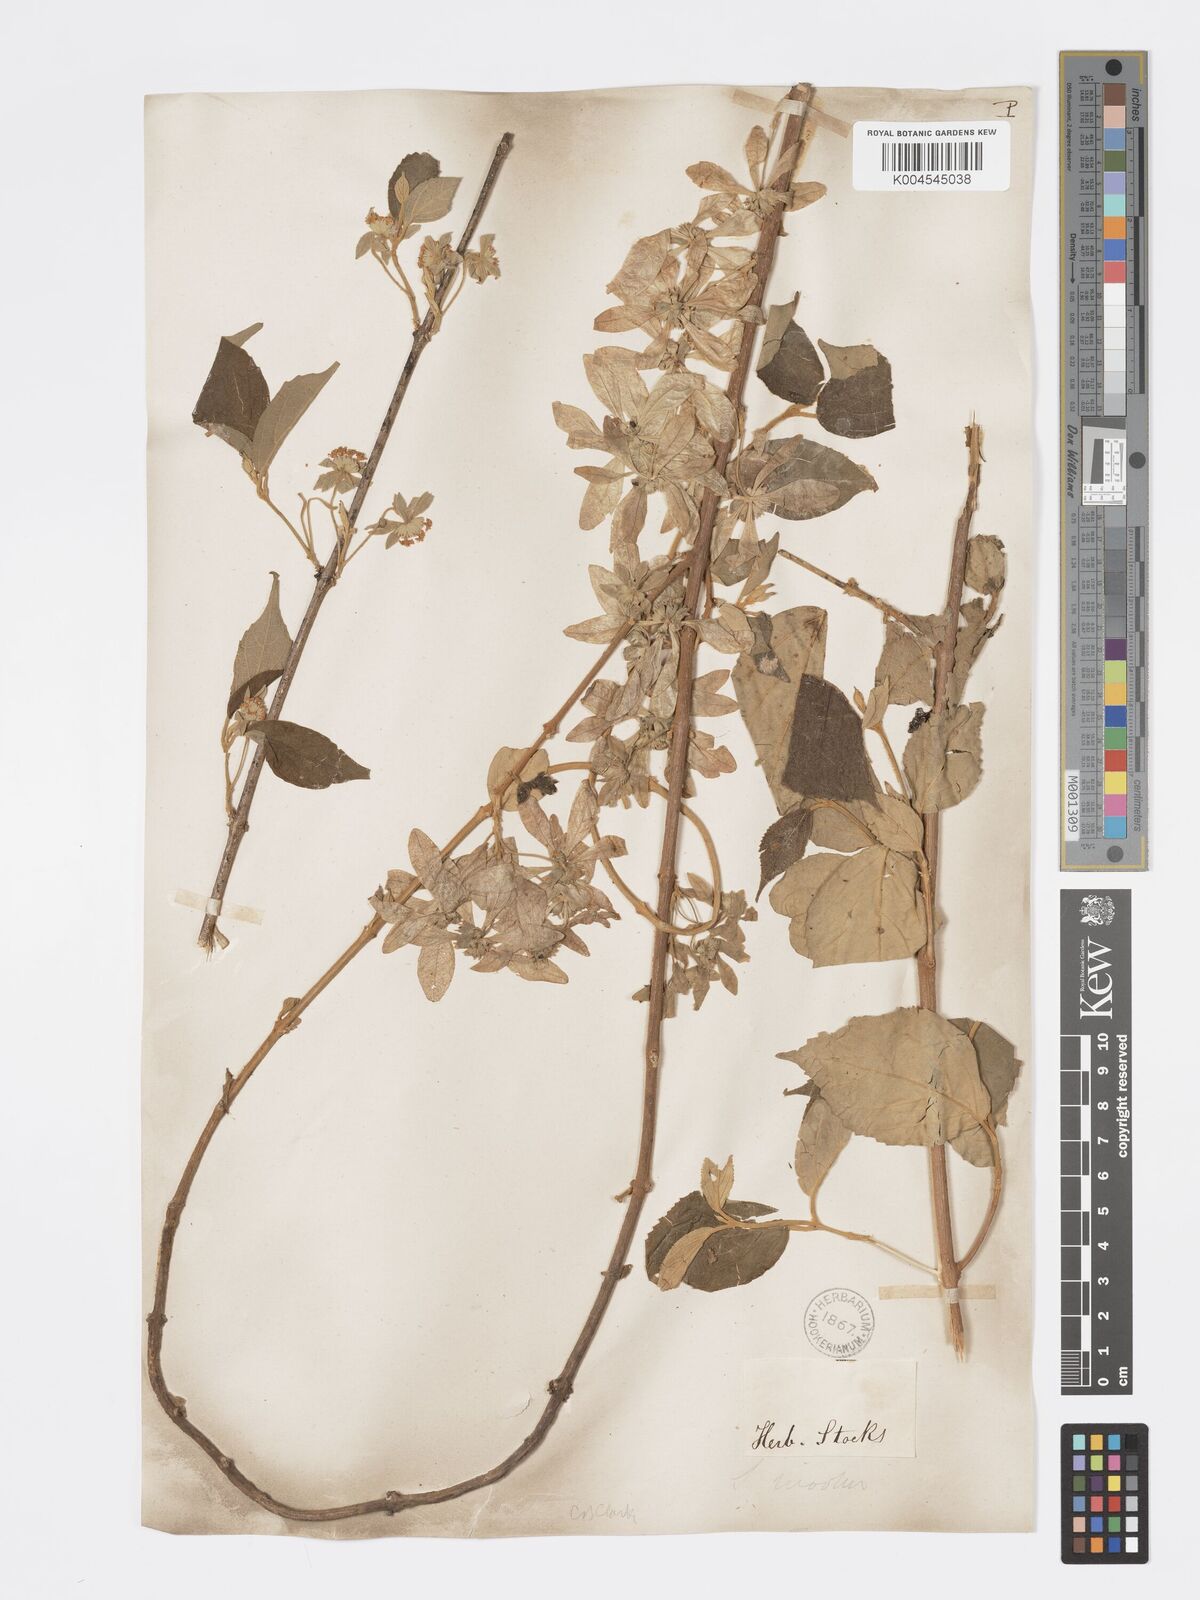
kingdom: Plantae
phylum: Tracheophyta
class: Magnoliopsida
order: Lamiales
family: Lamiaceae
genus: Symphorema
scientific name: Symphorema involucratum
